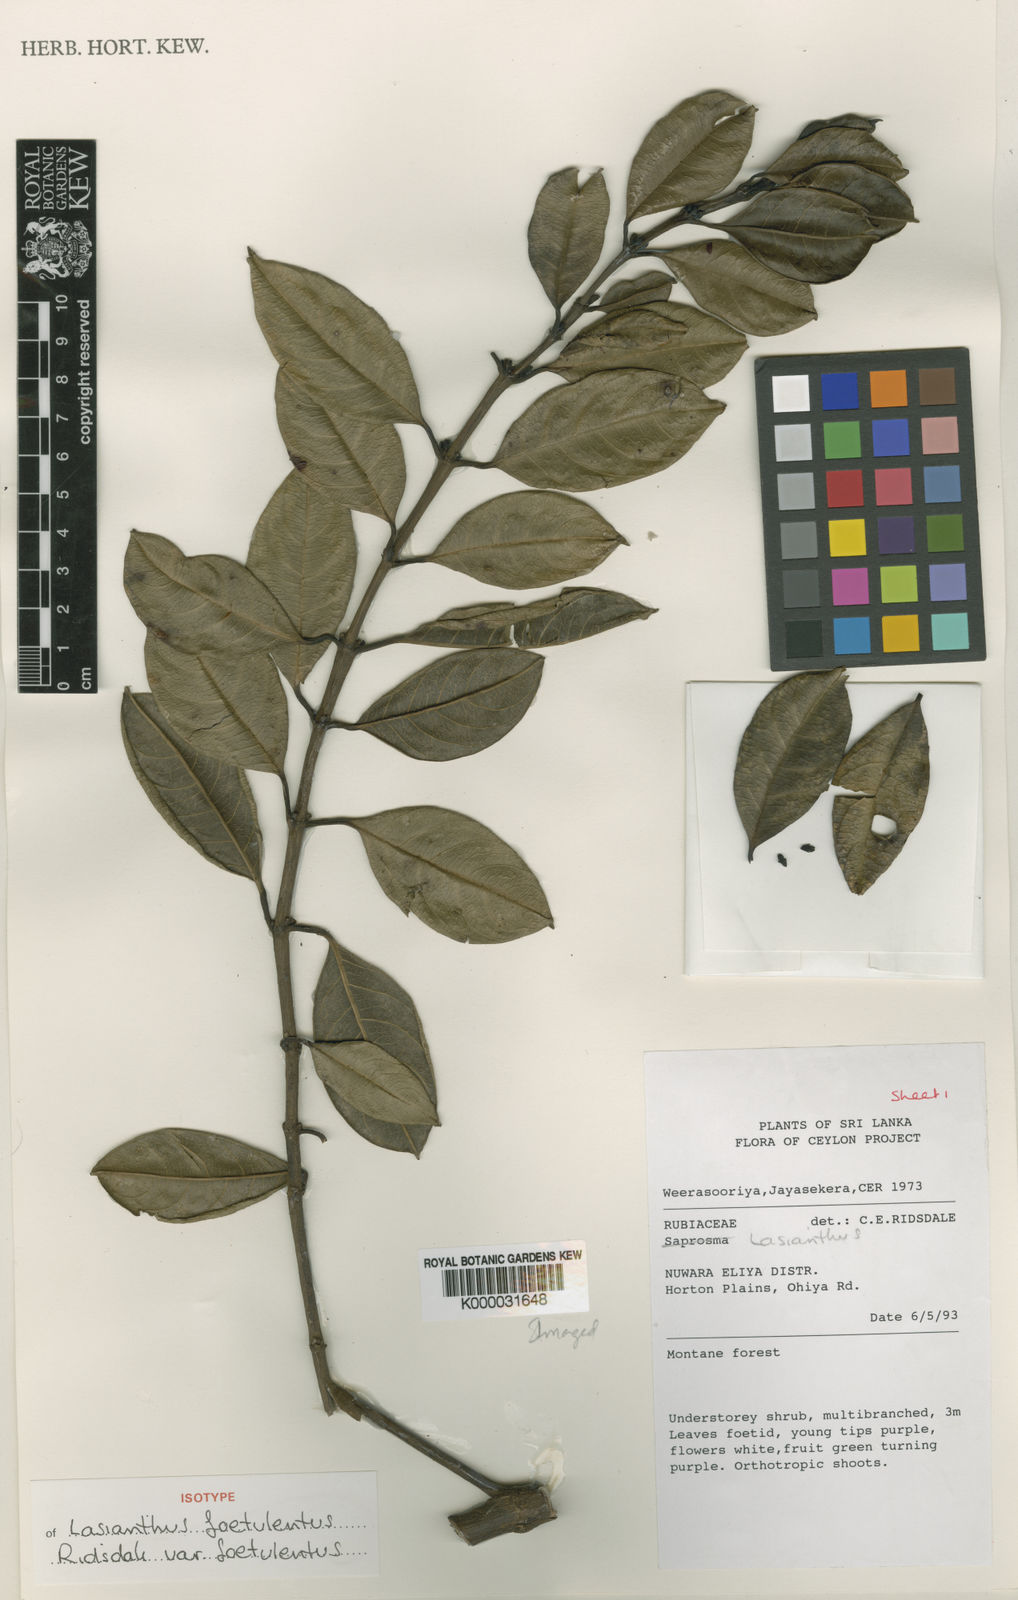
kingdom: Plantae
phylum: Tracheophyta
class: Magnoliopsida
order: Gentianales
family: Rubiaceae
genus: Lasianthus
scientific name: Lasianthus foetulentus
